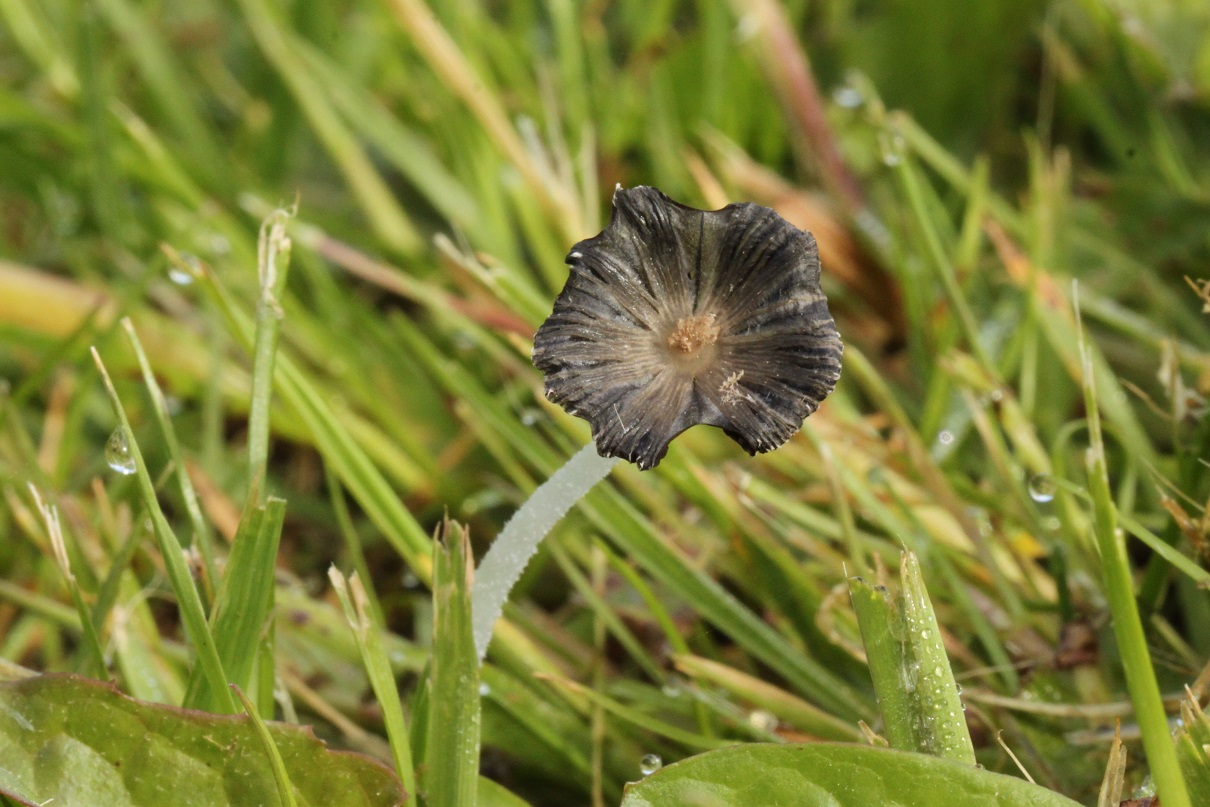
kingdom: Fungi
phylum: Basidiomycota
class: Agaricomycetes
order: Agaricales
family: Psathyrellaceae
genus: Coprinopsis
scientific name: Coprinopsis lagopus
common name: dunstokket blækhat
